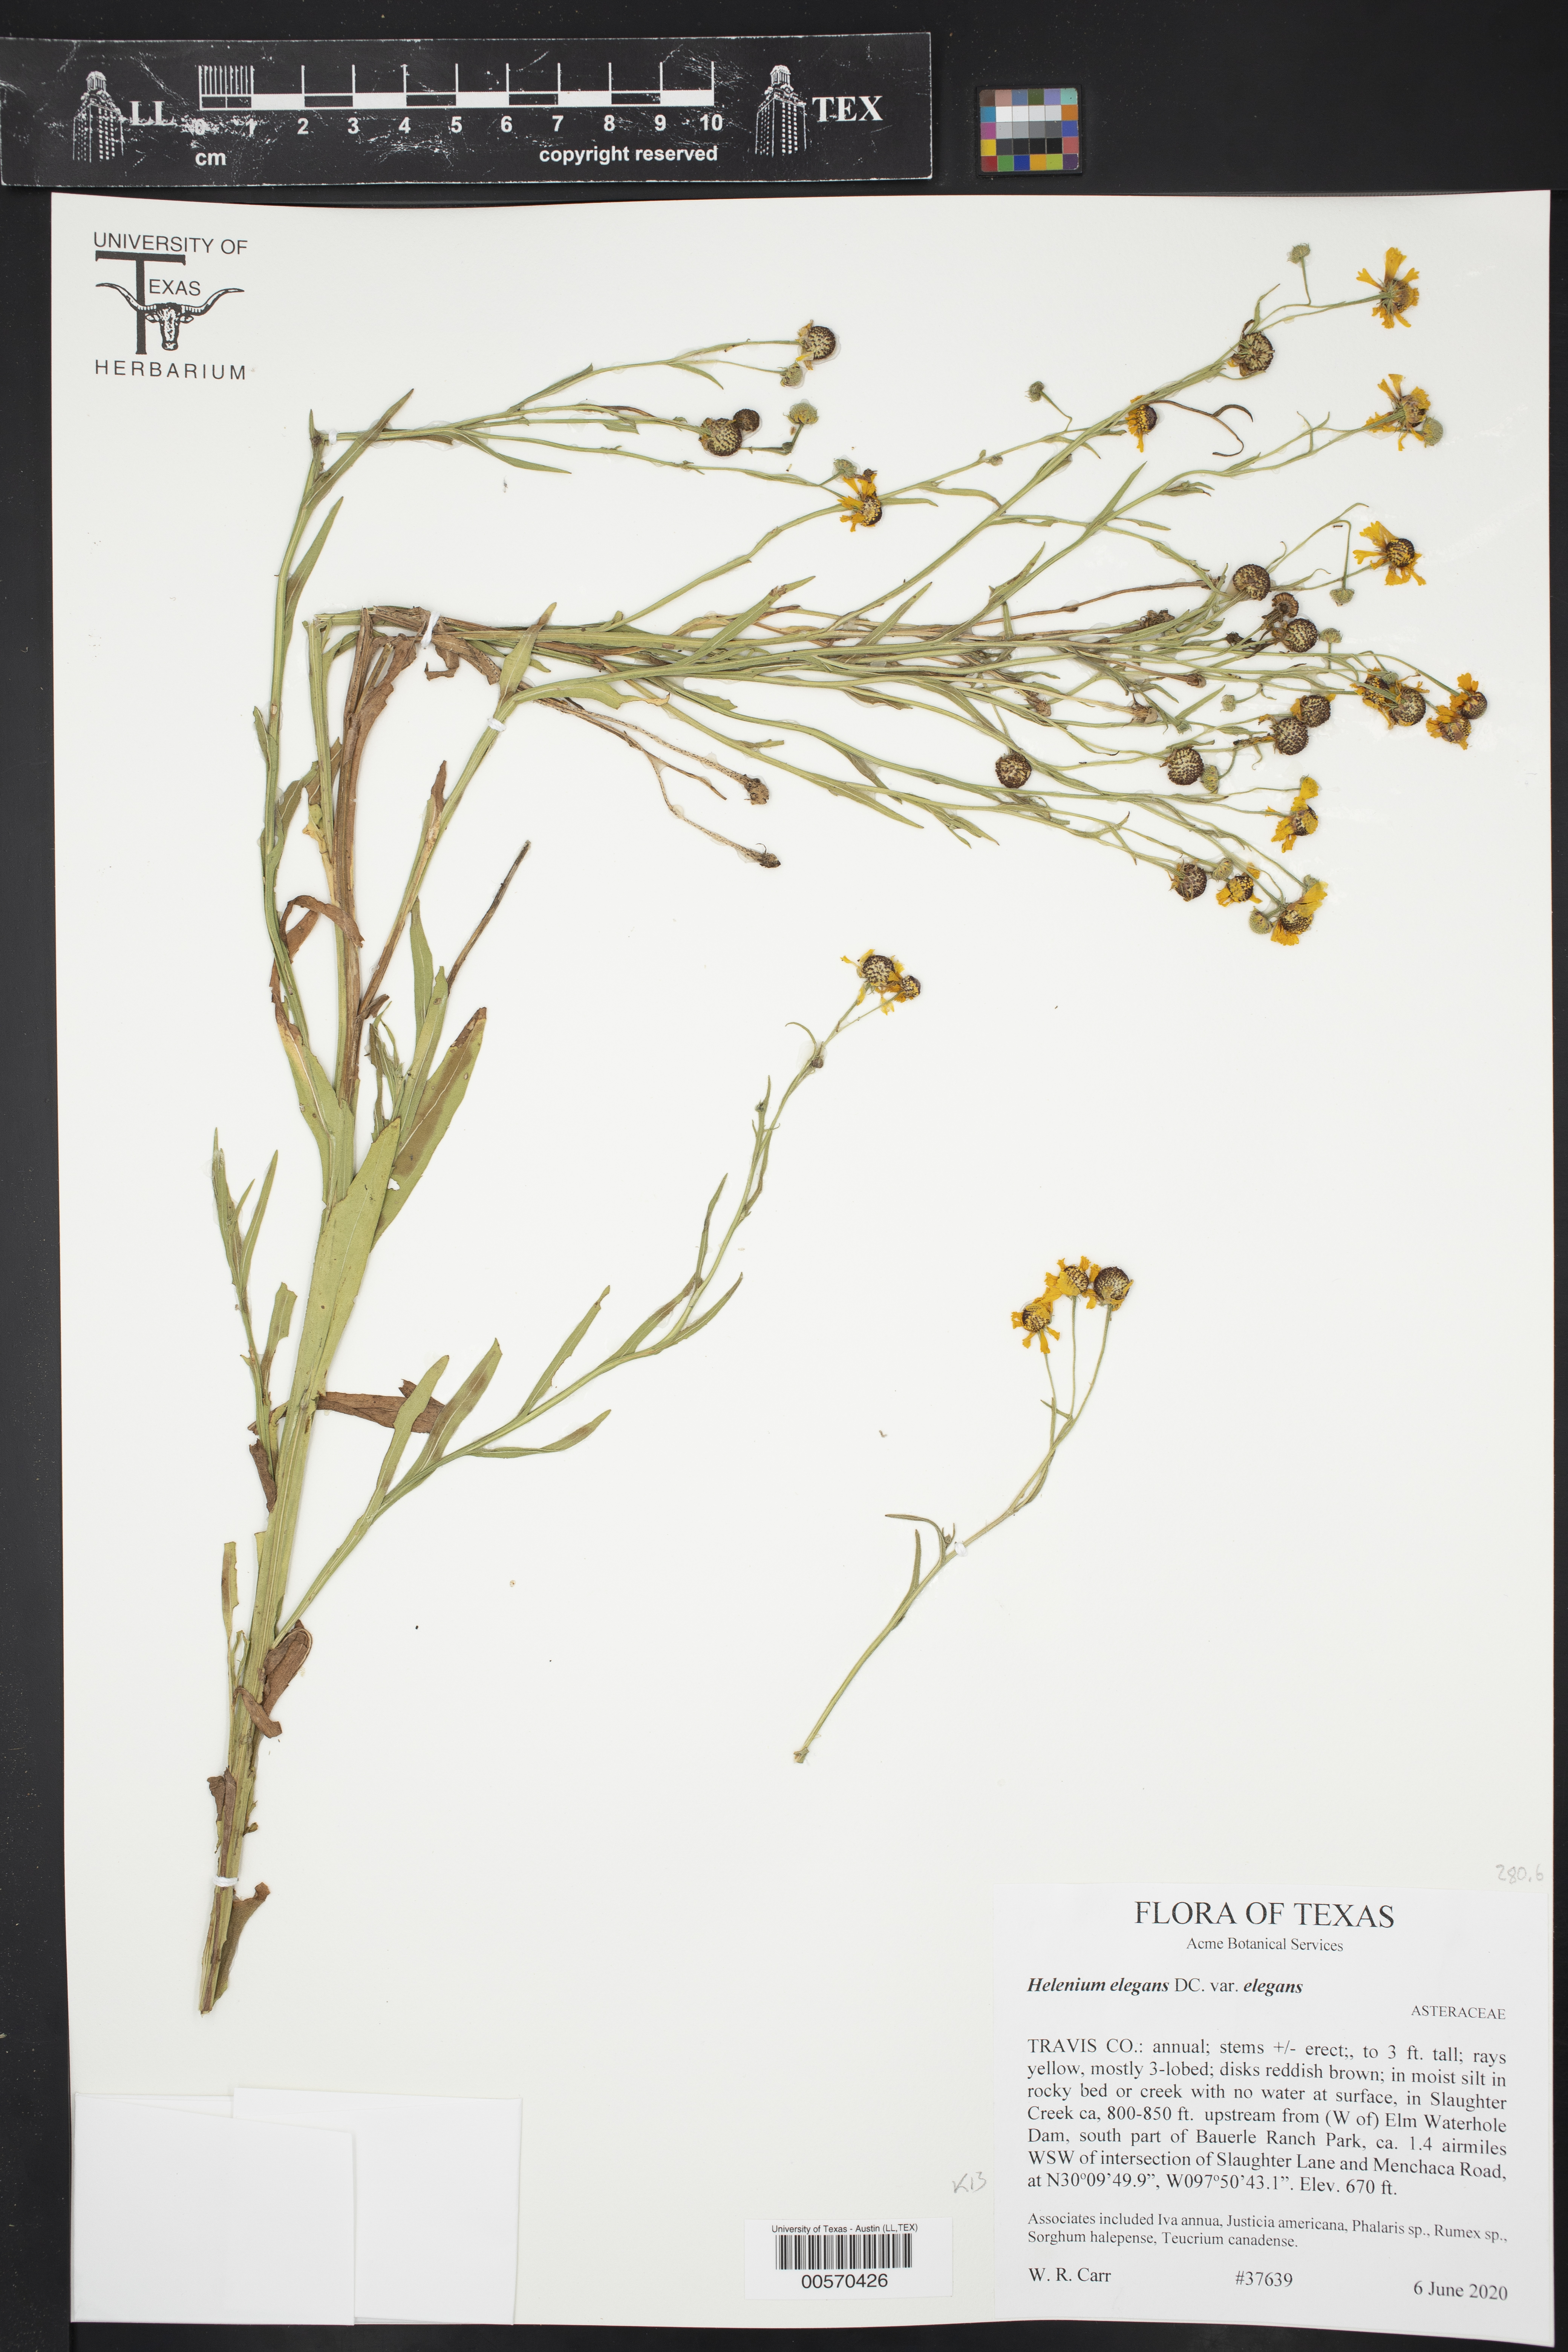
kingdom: Plantae
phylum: Tracheophyta
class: Magnoliopsida
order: Asterales
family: Asteraceae
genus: Helenium
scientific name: Helenium elegans
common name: Pretty sneezeweed
